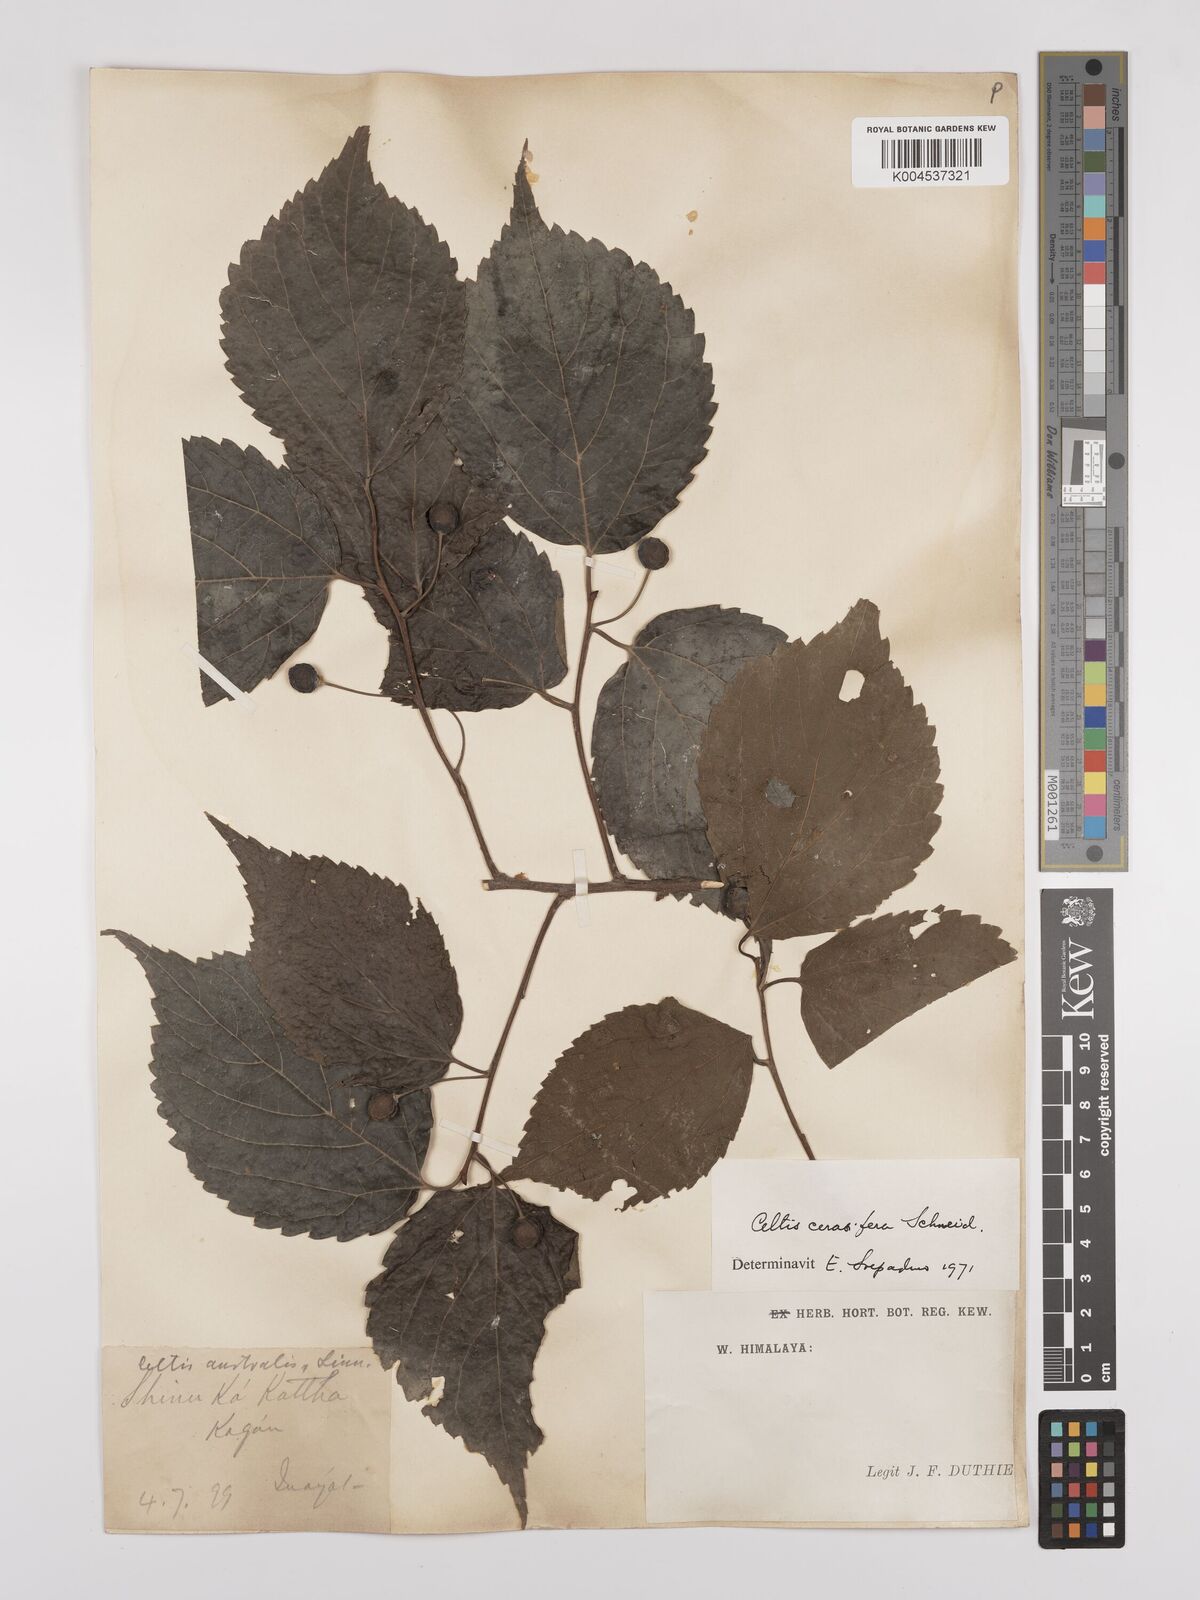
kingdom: Plantae
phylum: Tracheophyta
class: Magnoliopsida
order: Rosales
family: Cannabaceae
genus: Celtis
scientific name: Celtis cerasifera
